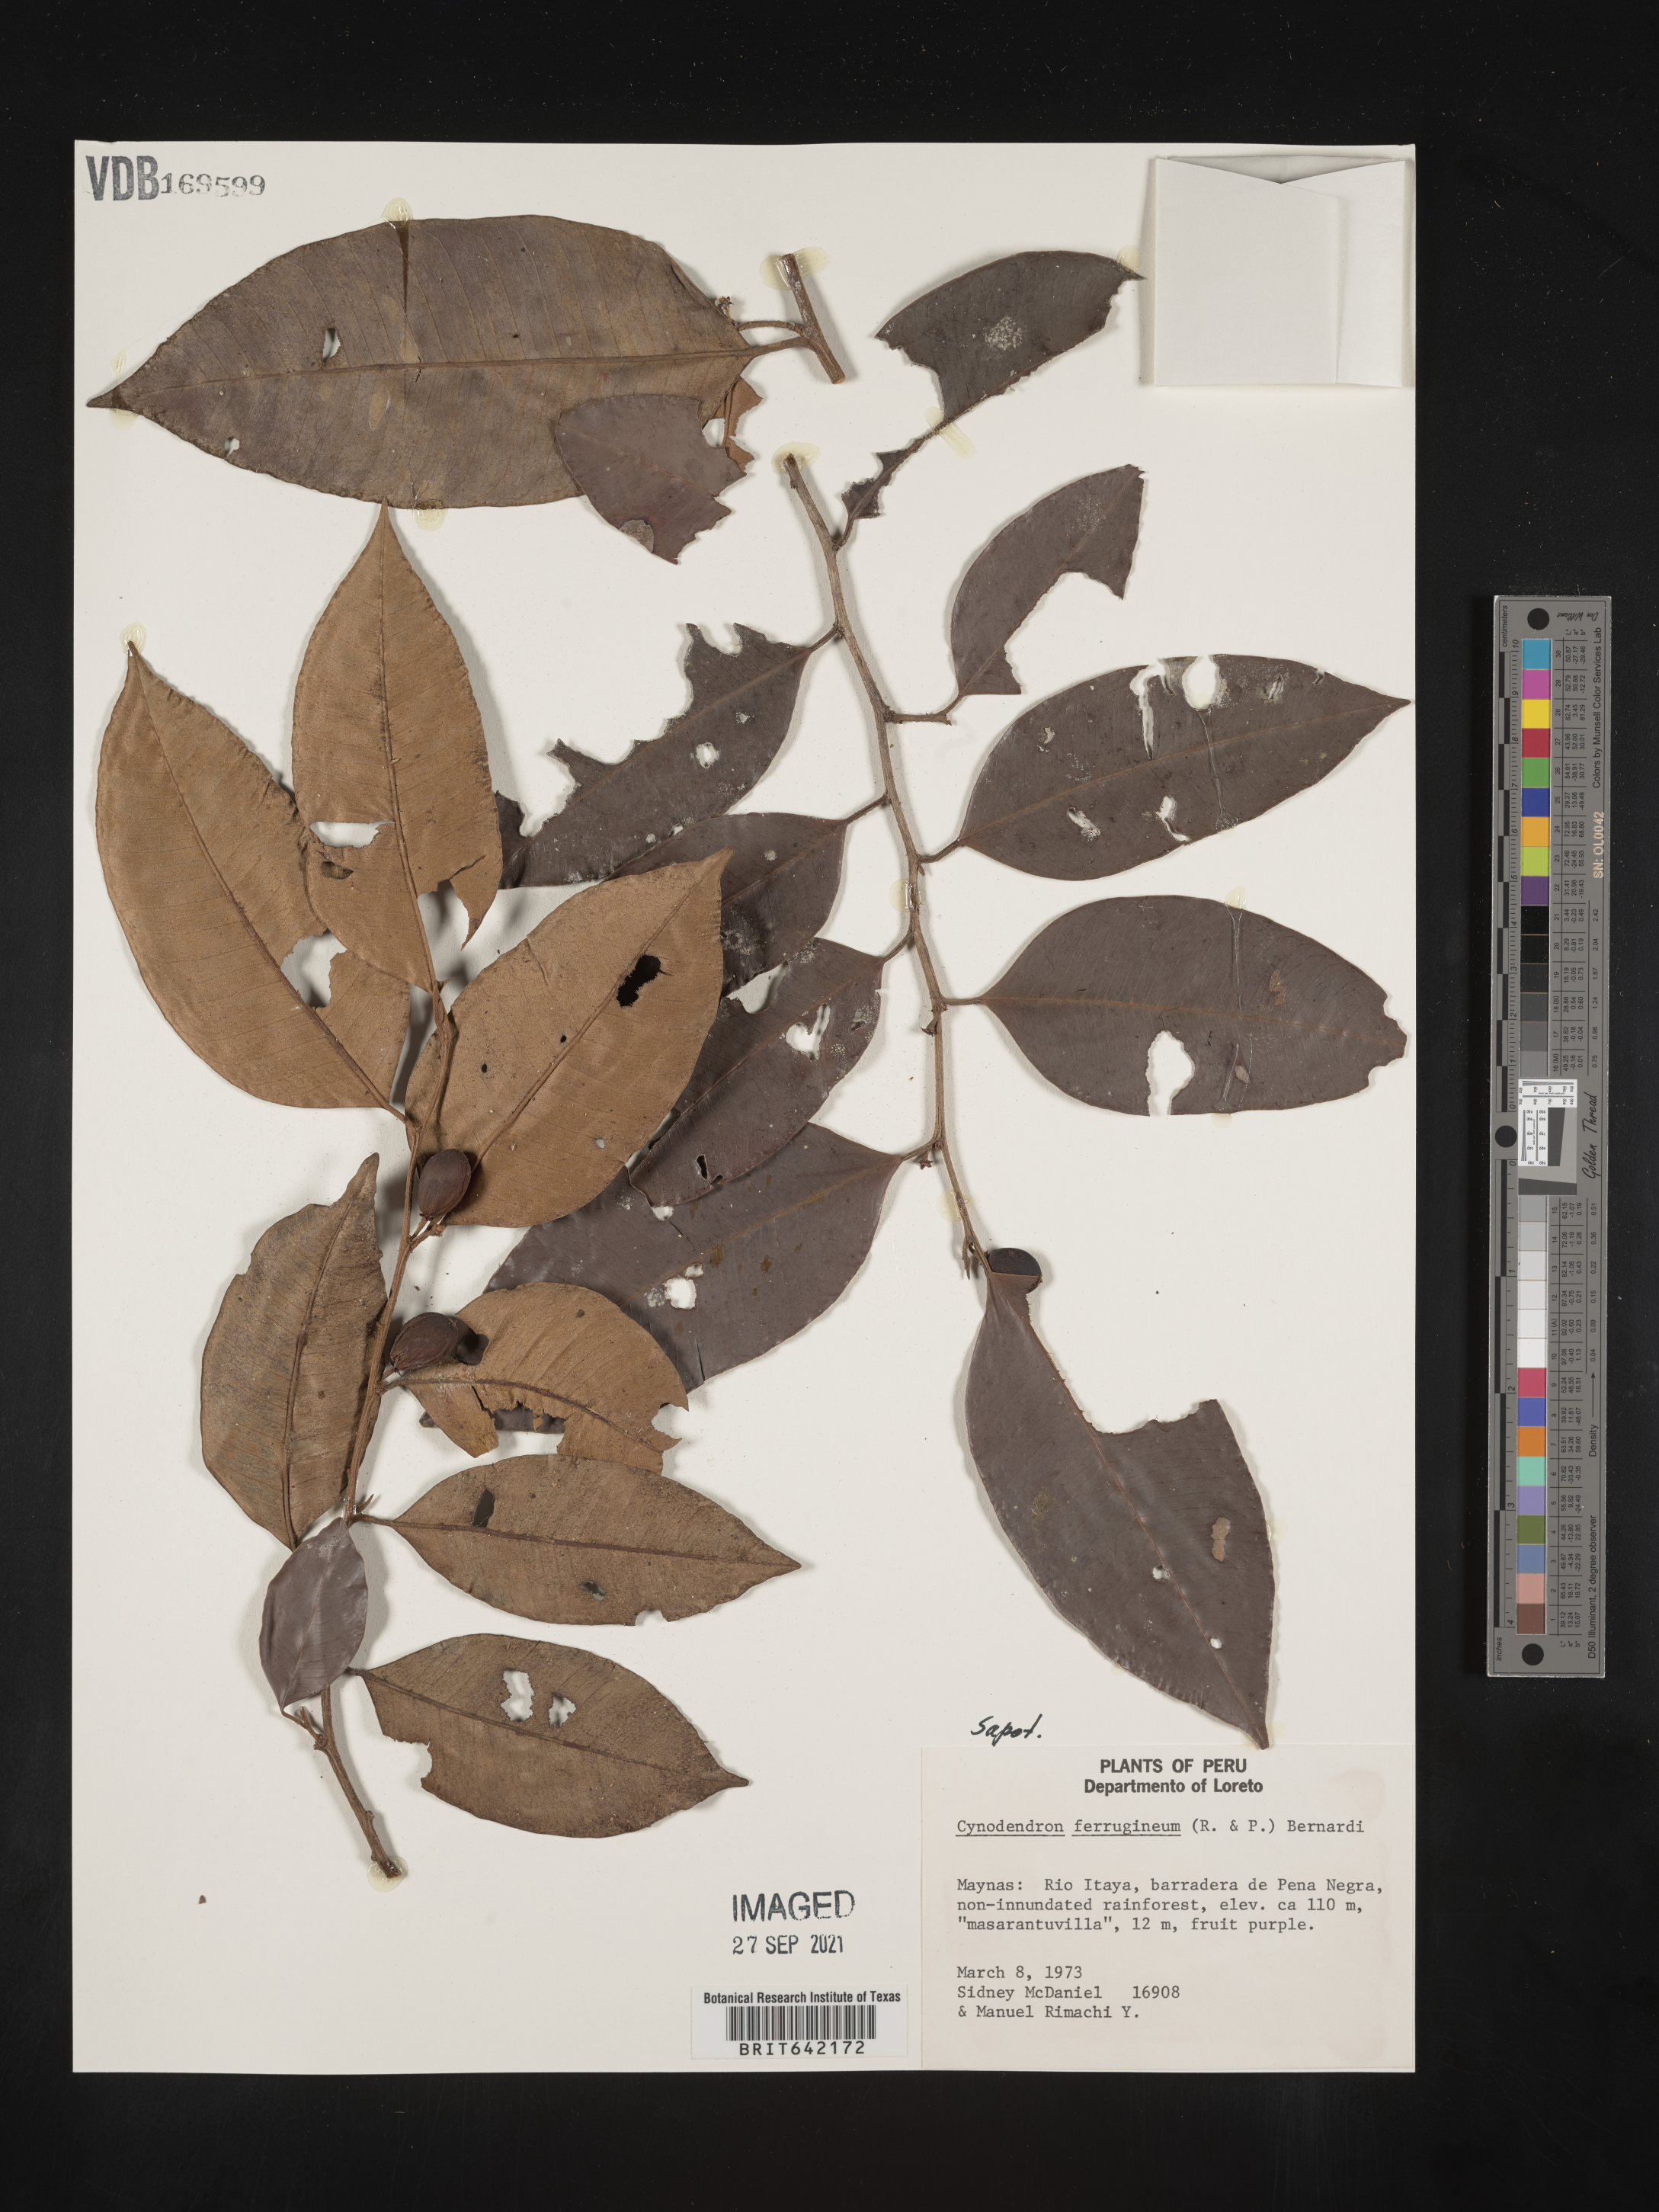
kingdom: Plantae
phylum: Tracheophyta
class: Magnoliopsida
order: Ericales
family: Sapotaceae
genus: Chrysophyllum
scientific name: Chrysophyllum
